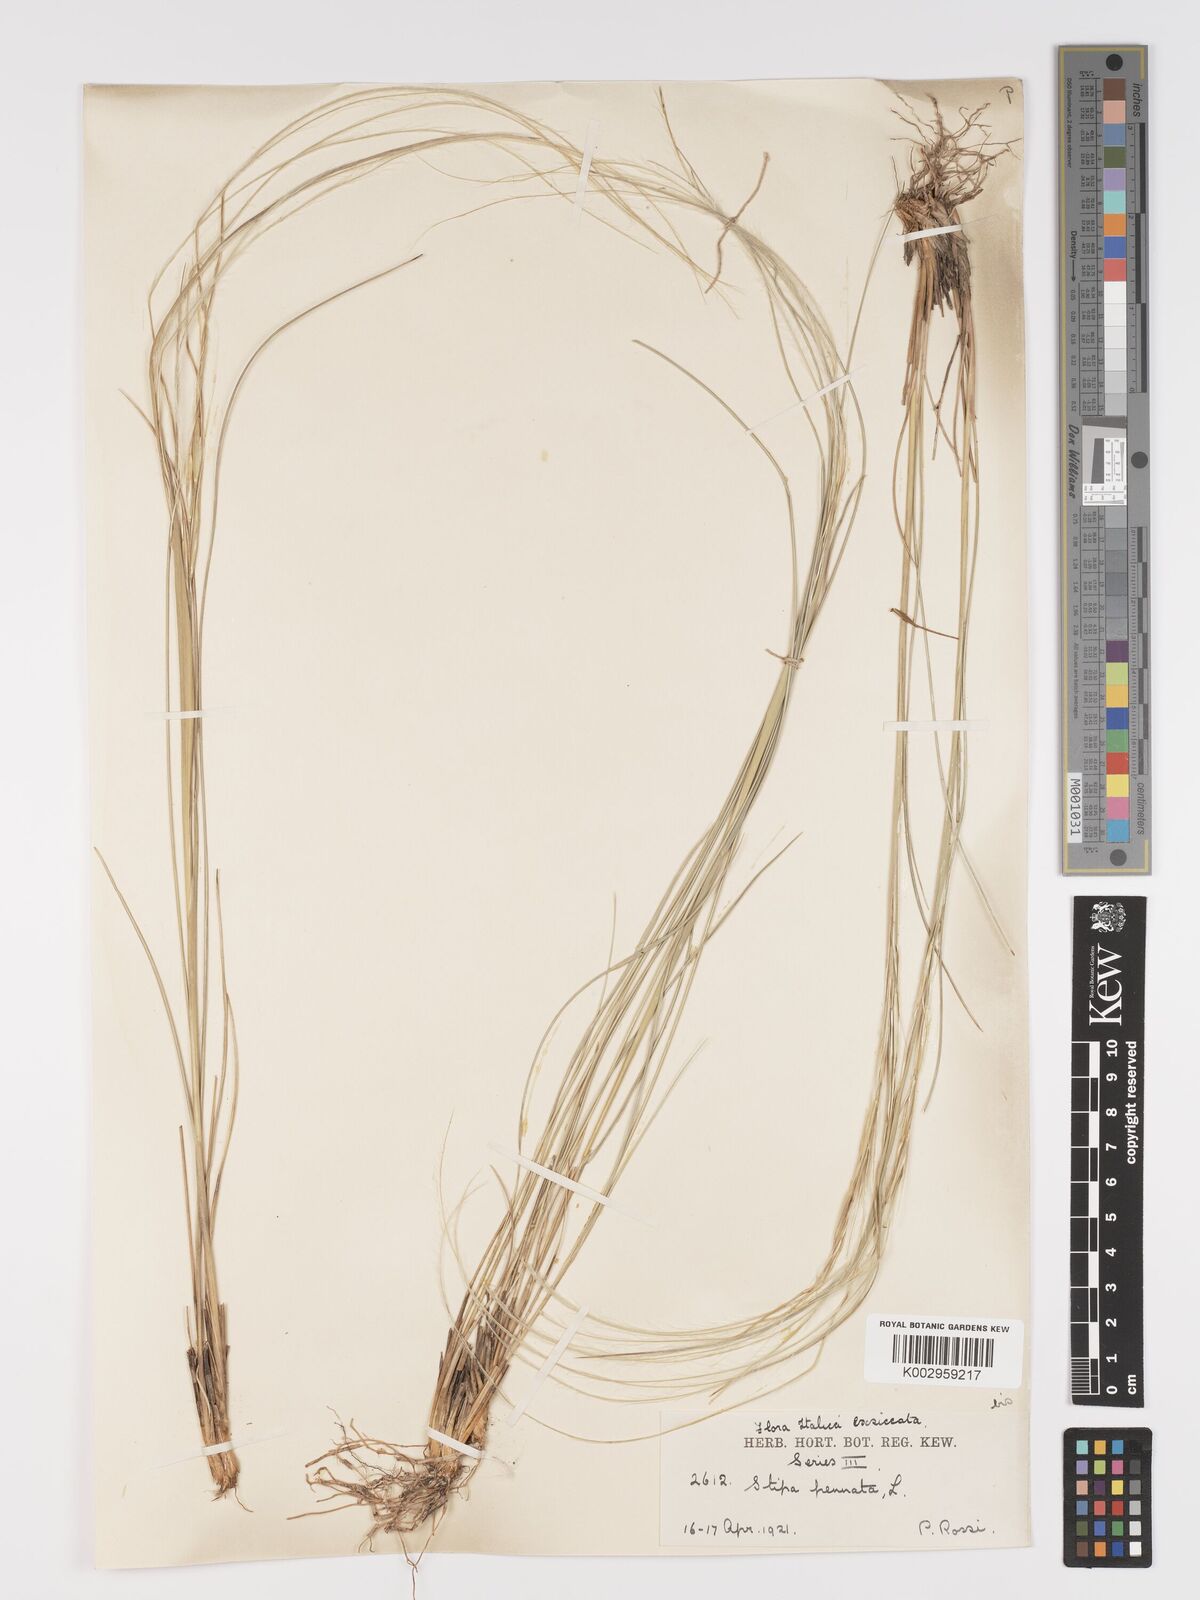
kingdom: Plantae
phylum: Tracheophyta
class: Liliopsida
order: Poales
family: Poaceae
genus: Stipa
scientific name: Stipa pennata
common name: European feather grass
